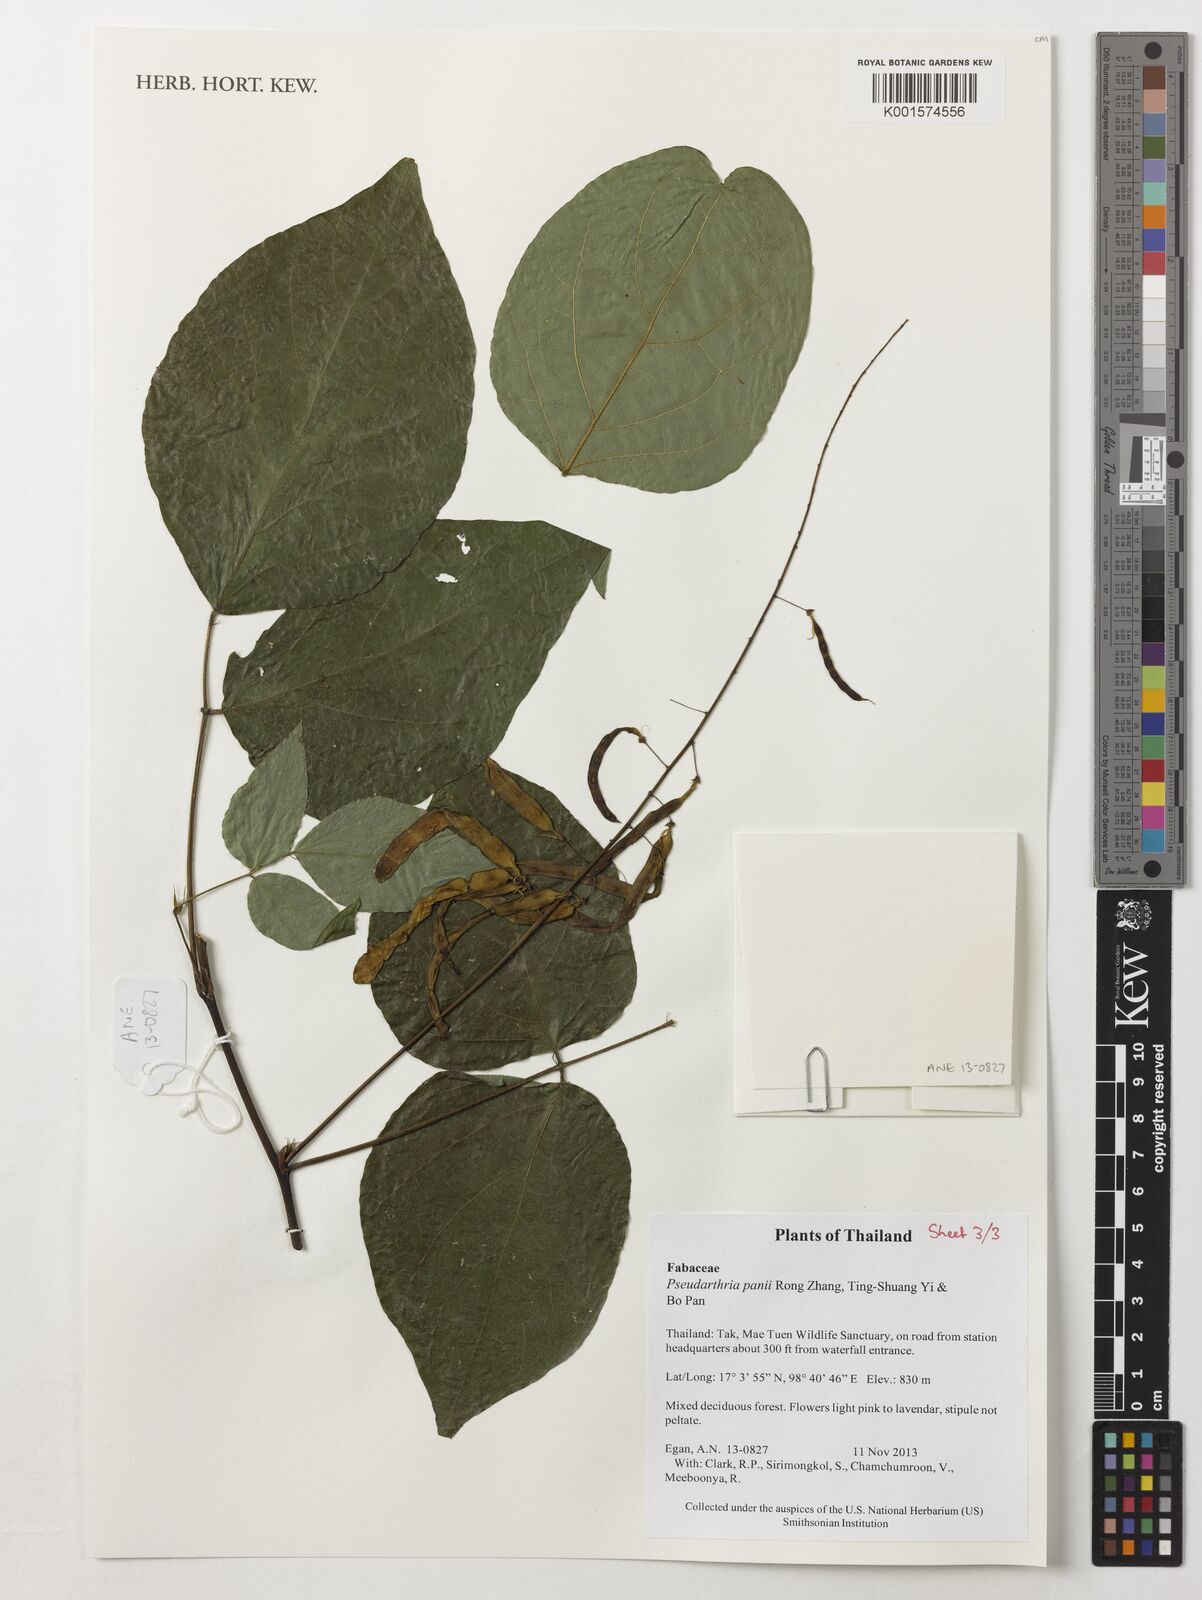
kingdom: Plantae
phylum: Tracheophyta
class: Magnoliopsida
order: Fabales
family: Fabaceae
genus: Pseudarthria
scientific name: Pseudarthria panii bis
